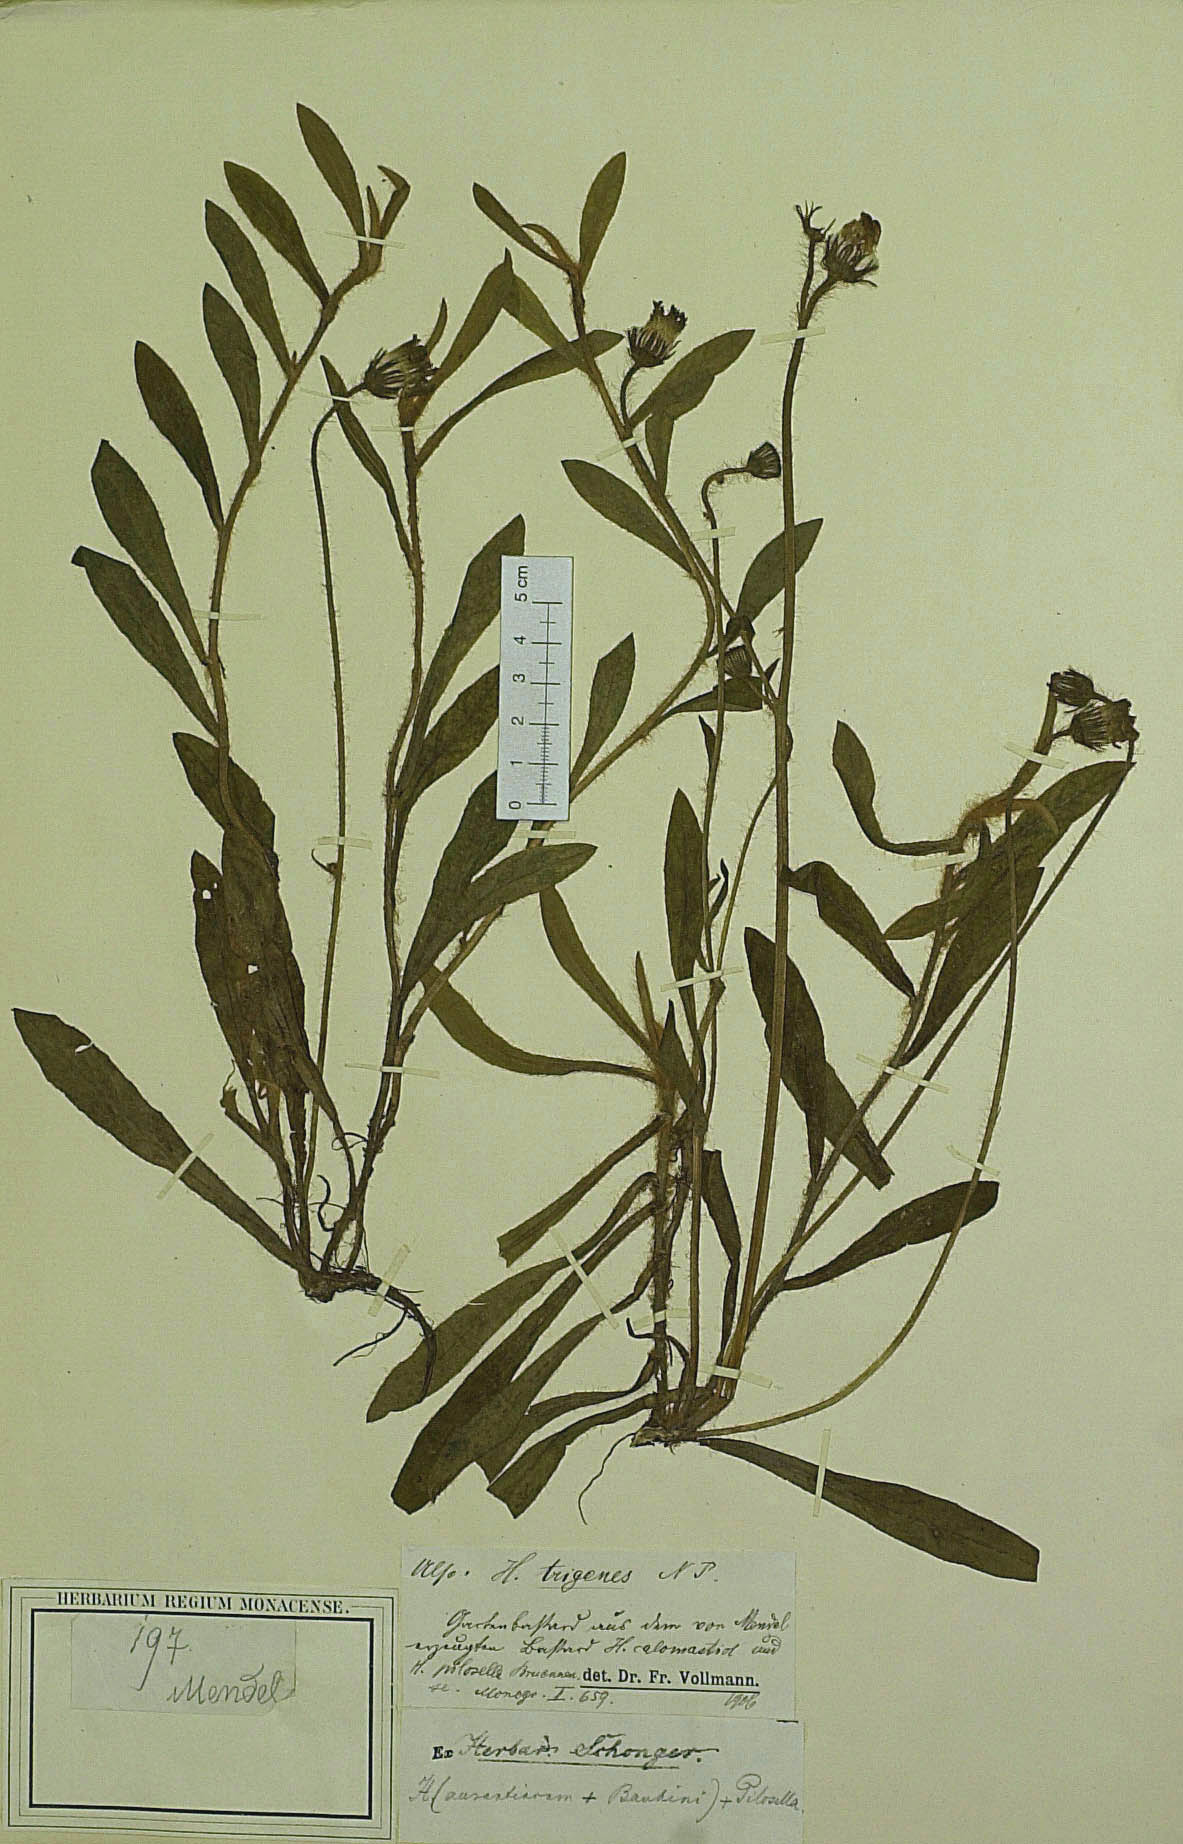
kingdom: Plantae
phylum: Tracheophyta
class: Magnoliopsida
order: Asterales
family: Asteraceae
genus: Pilosella
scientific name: Pilosella trigenes
